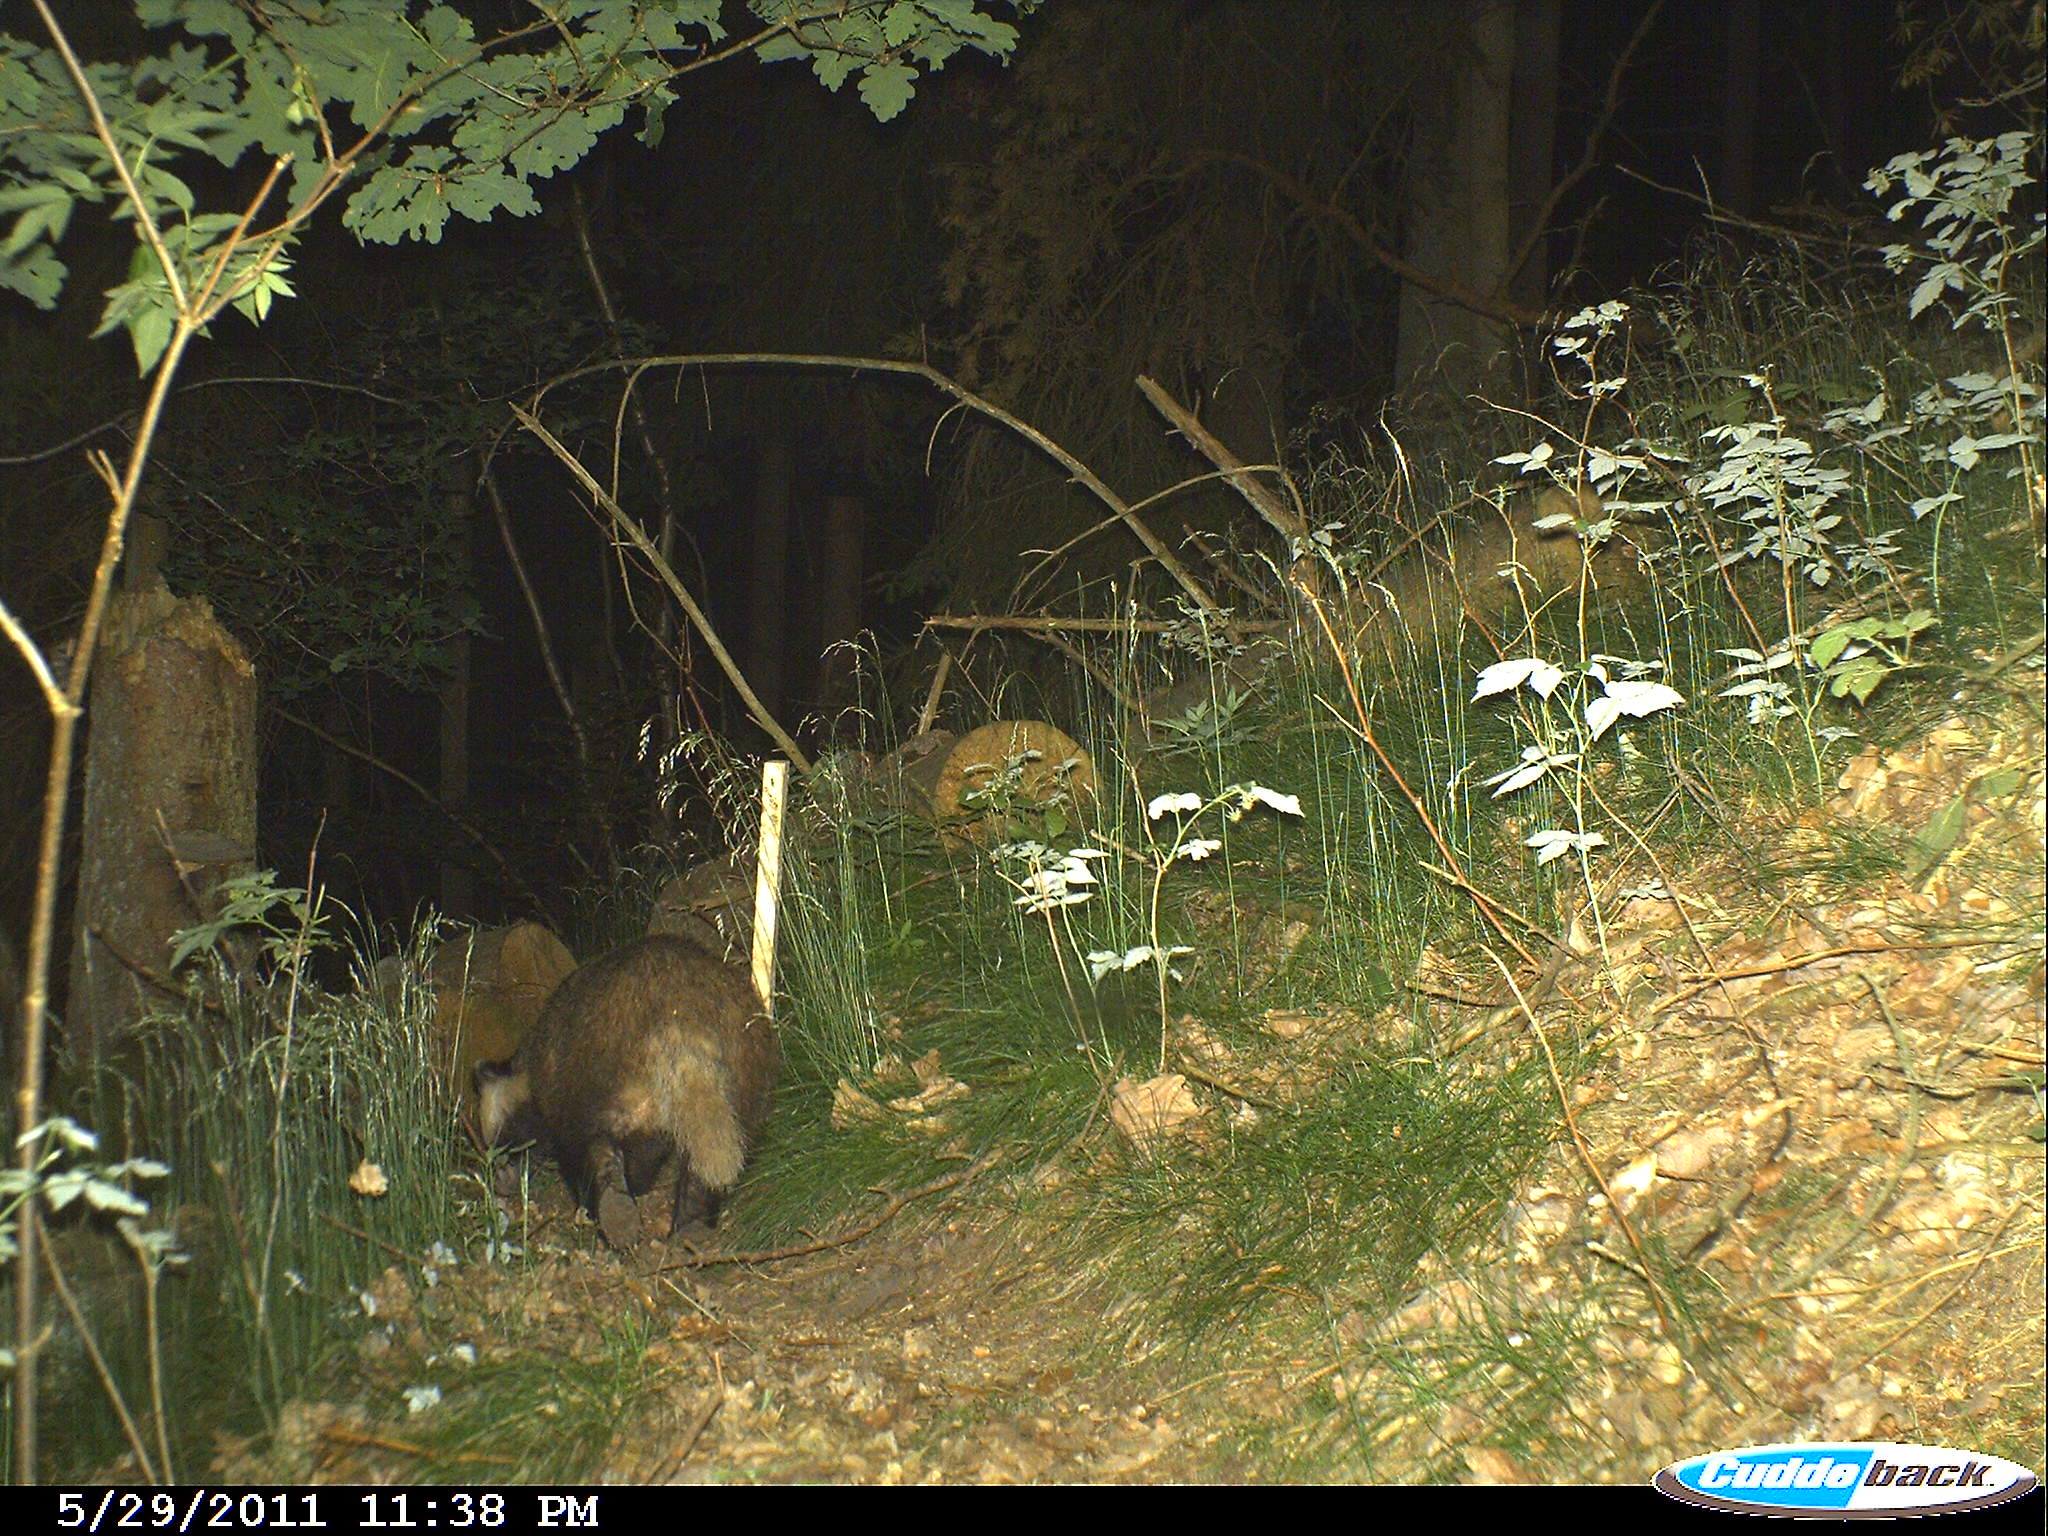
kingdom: Animalia
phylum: Chordata
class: Mammalia
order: Carnivora
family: Mustelidae
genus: Meles
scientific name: Meles meles
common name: Eurasian badger
